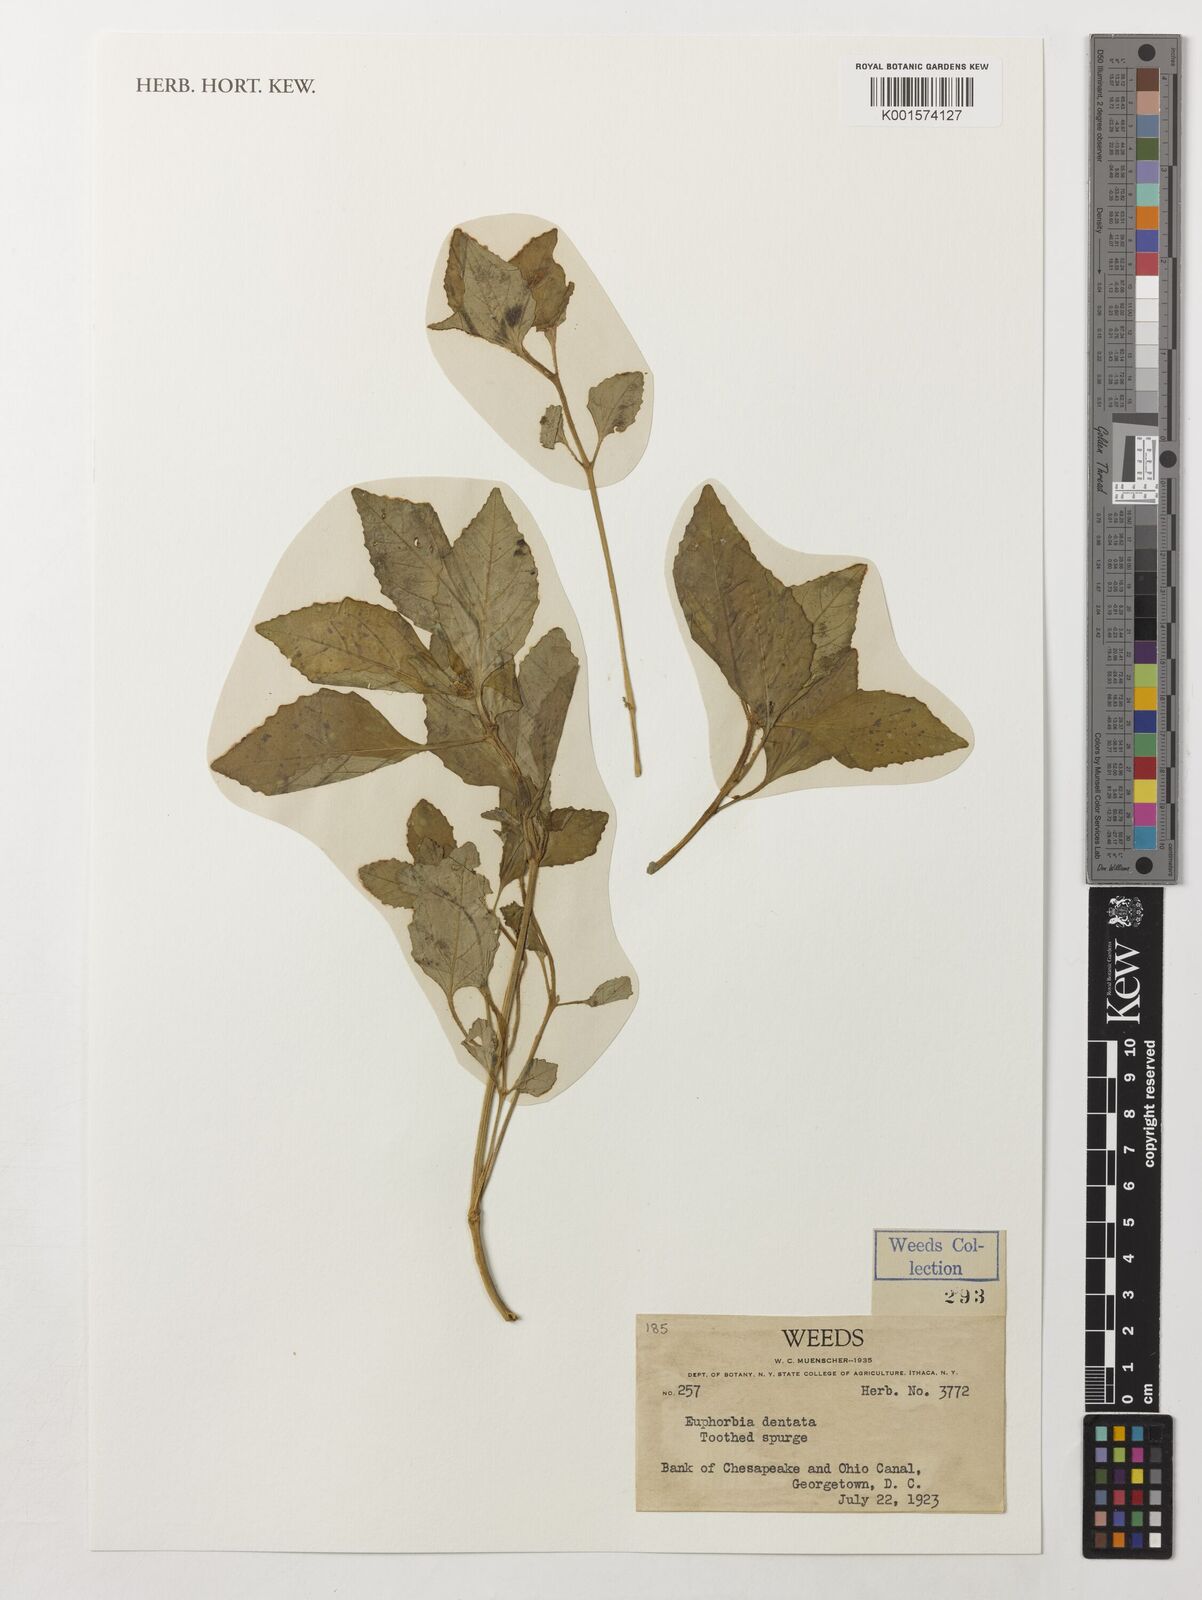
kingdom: Plantae
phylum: Tracheophyta
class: Magnoliopsida
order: Malpighiales
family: Euphorbiaceae
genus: Euphorbia
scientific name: Euphorbia dentata
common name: Dentate spurge
